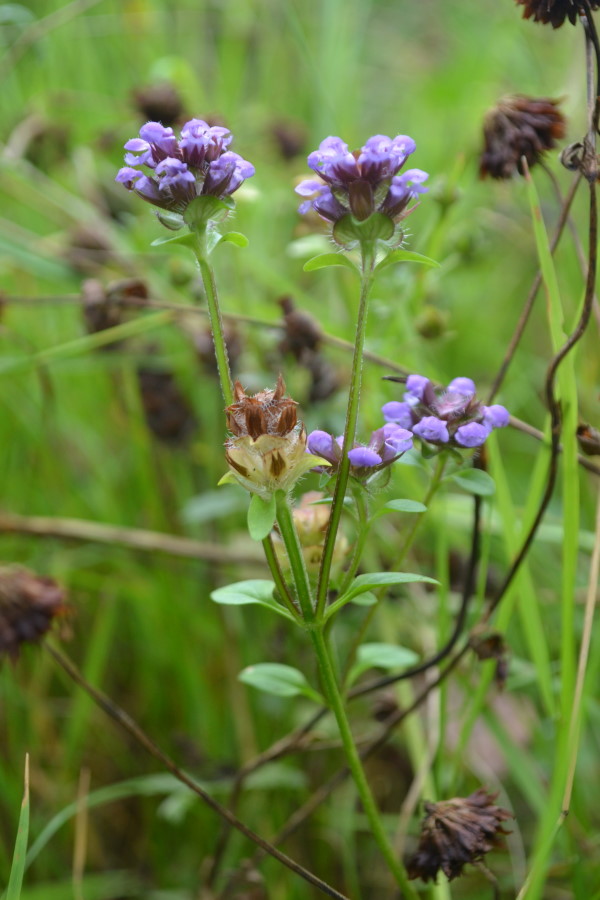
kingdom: Plantae
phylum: Tracheophyta
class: Magnoliopsida
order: Lamiales
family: Lamiaceae
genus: Prunella
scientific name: Prunella vulgaris
